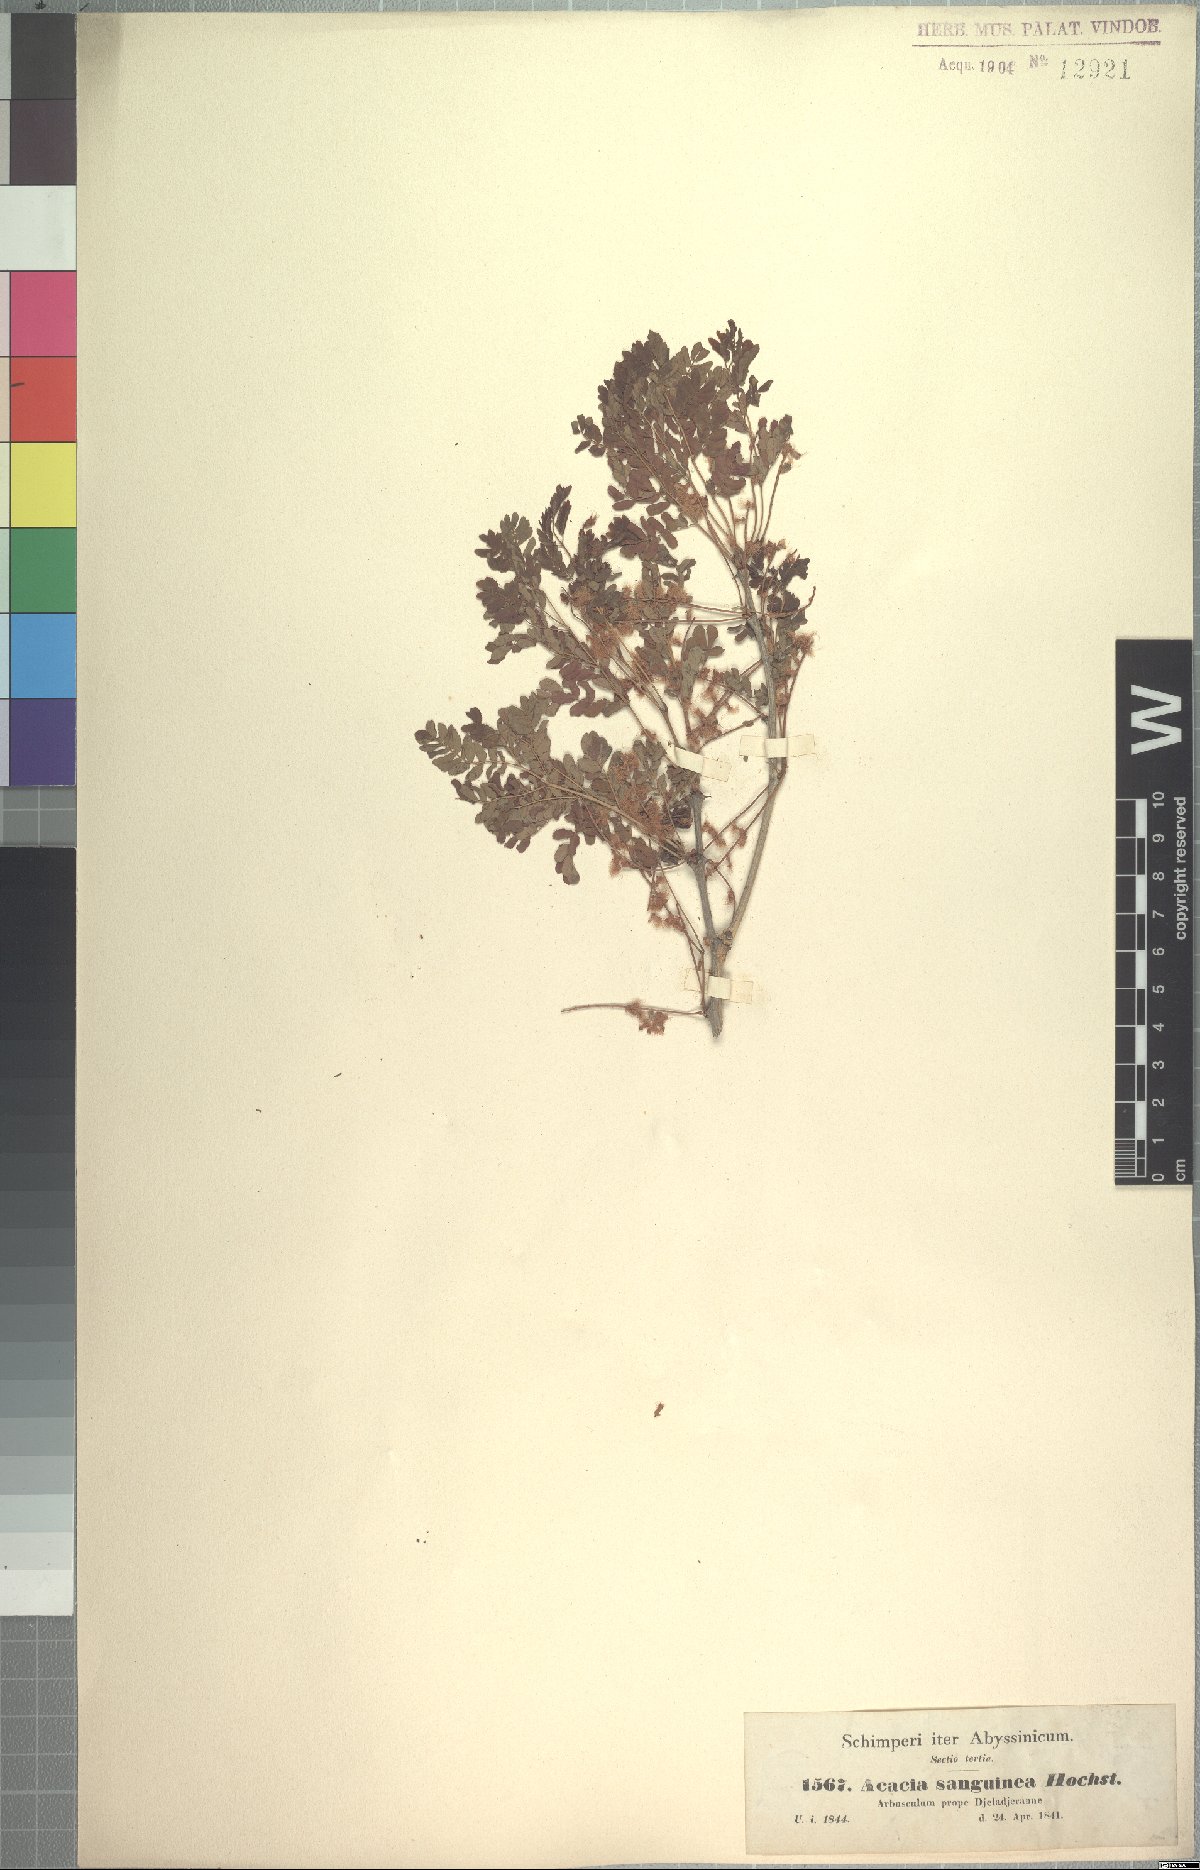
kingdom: Plantae
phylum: Tracheophyta
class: Magnoliopsida
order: Fabales
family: Fabaceae
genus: Senegalia
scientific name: Senegalia venosa
